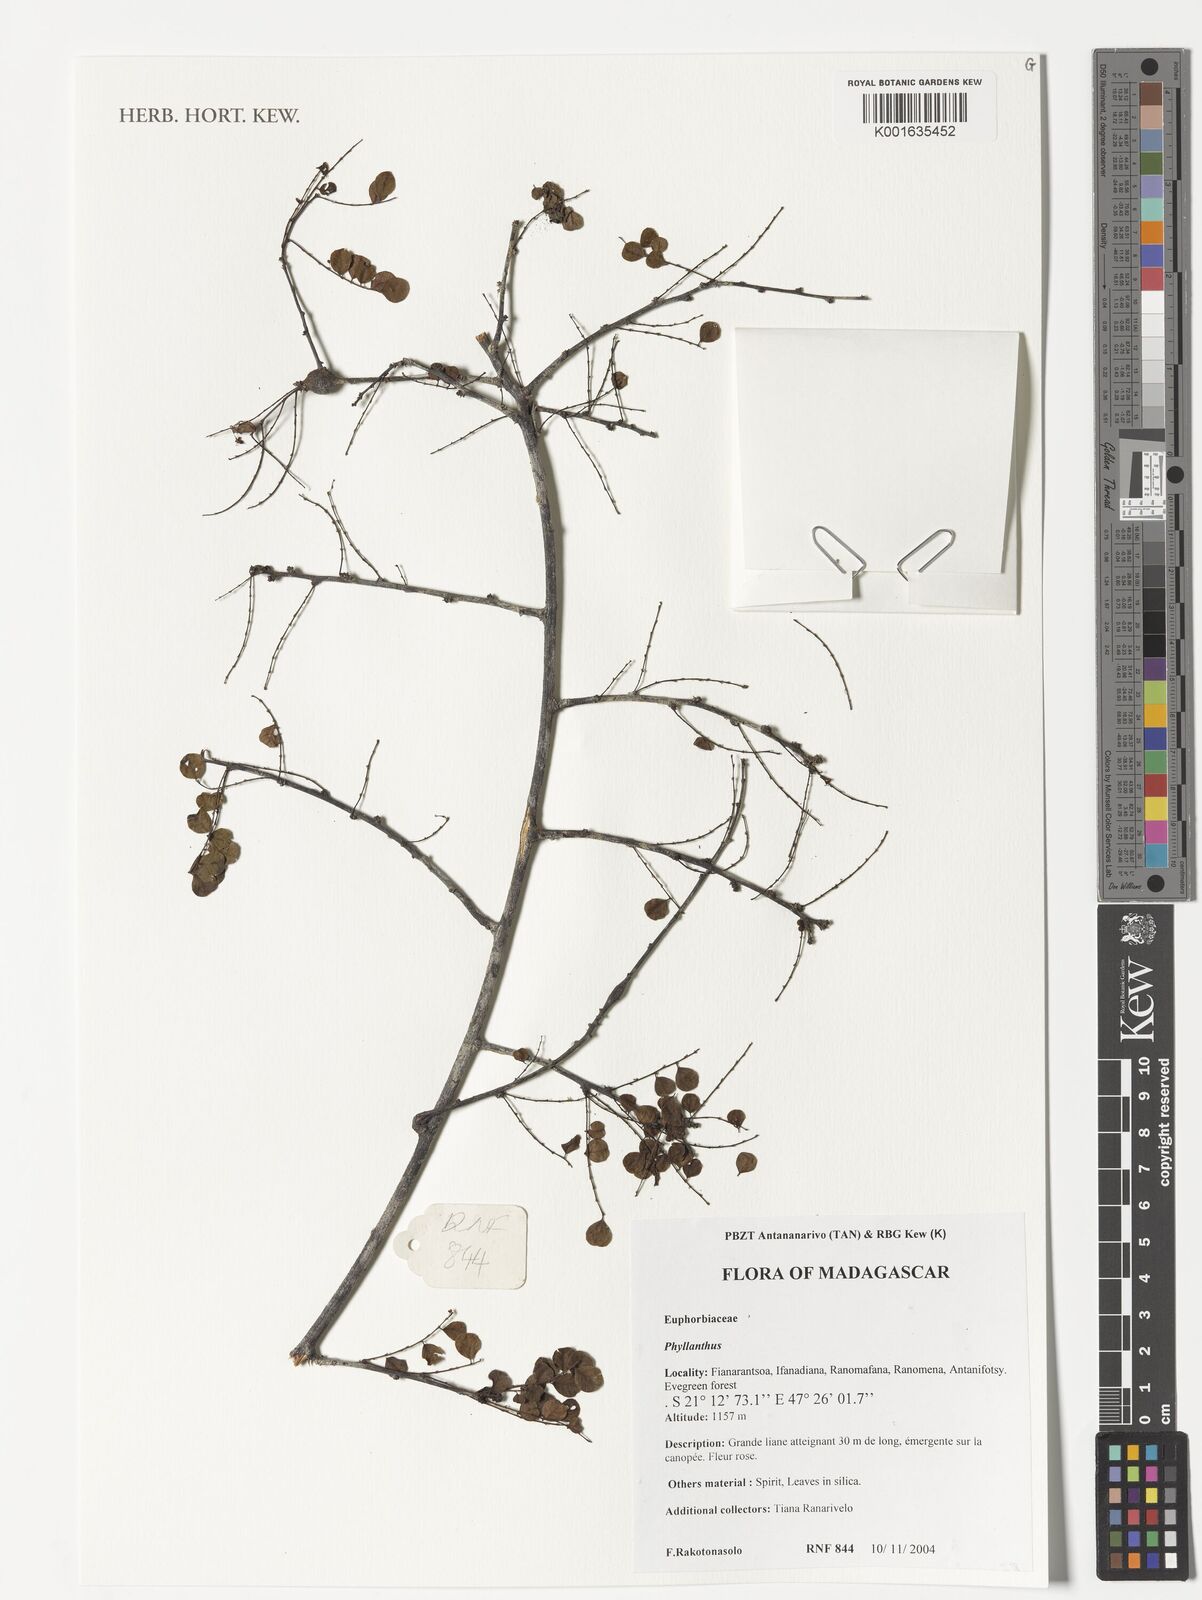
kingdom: Plantae
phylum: Tracheophyta
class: Magnoliopsida
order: Malpighiales
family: Phyllanthaceae
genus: Phyllanthus
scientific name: Phyllanthus
